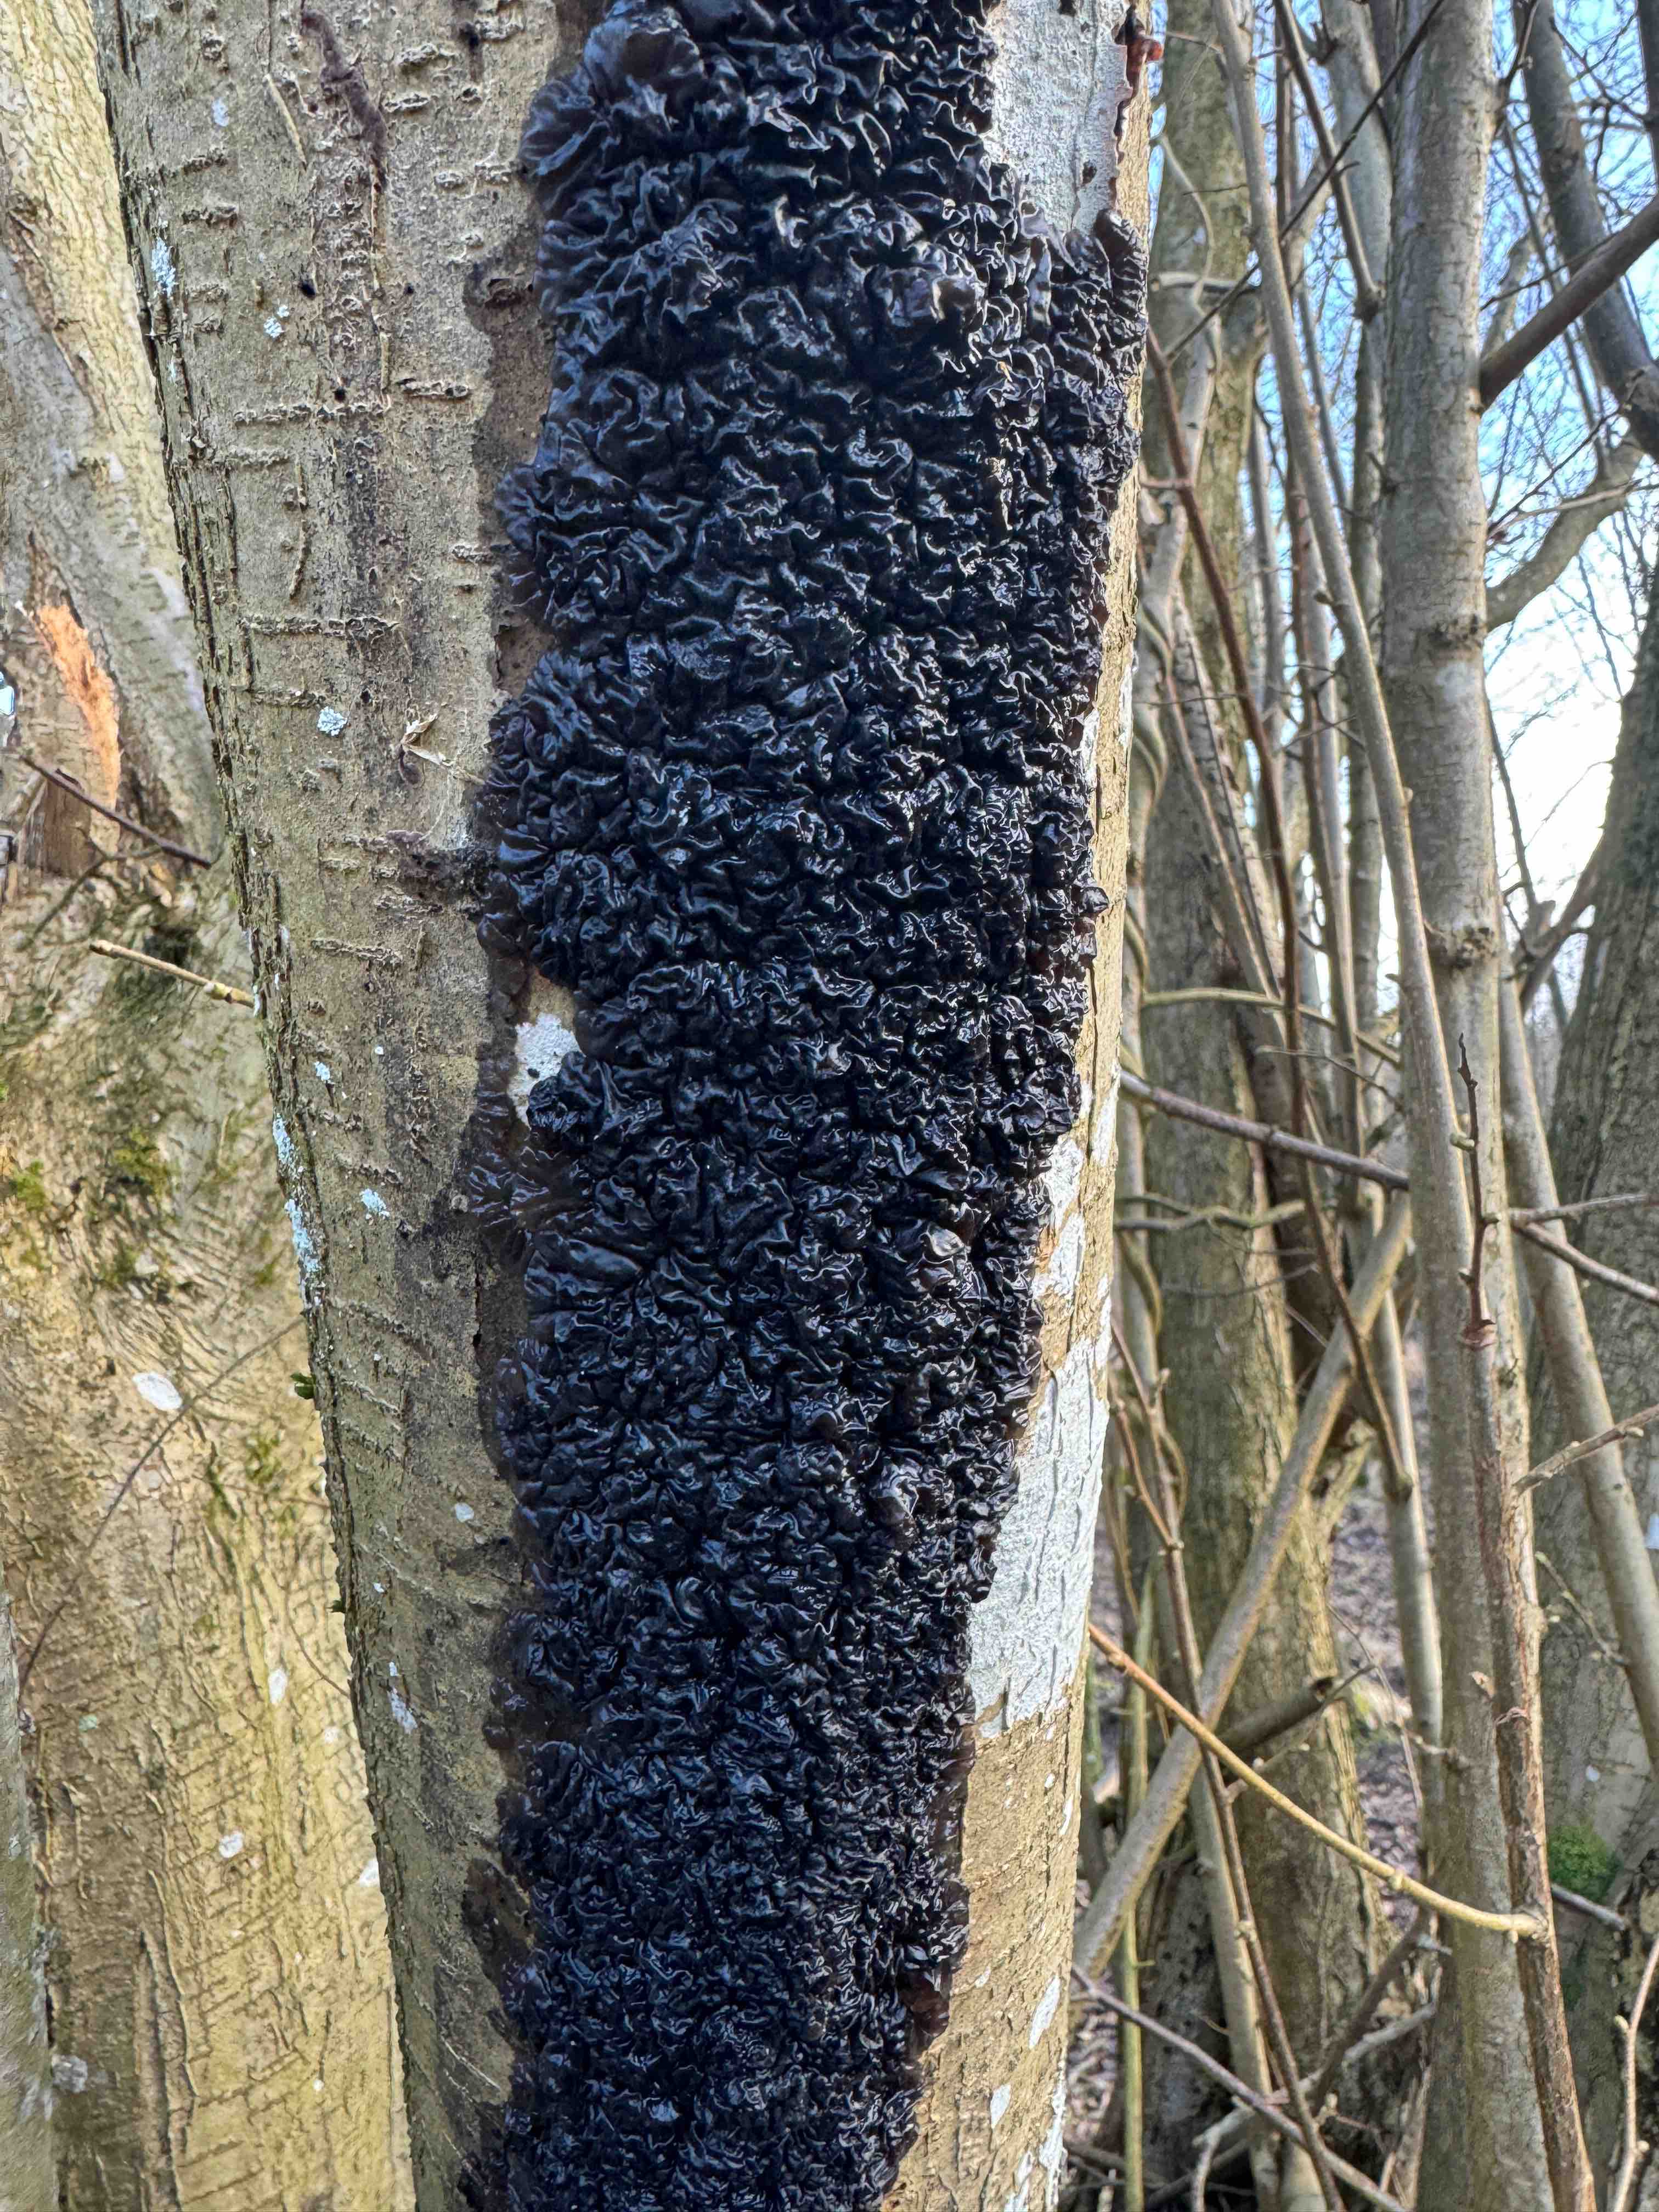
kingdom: Fungi
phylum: Basidiomycota
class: Agaricomycetes
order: Auriculariales
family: Auriculariaceae
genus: Exidia
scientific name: Exidia nigricans
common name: almindelig bævretop
